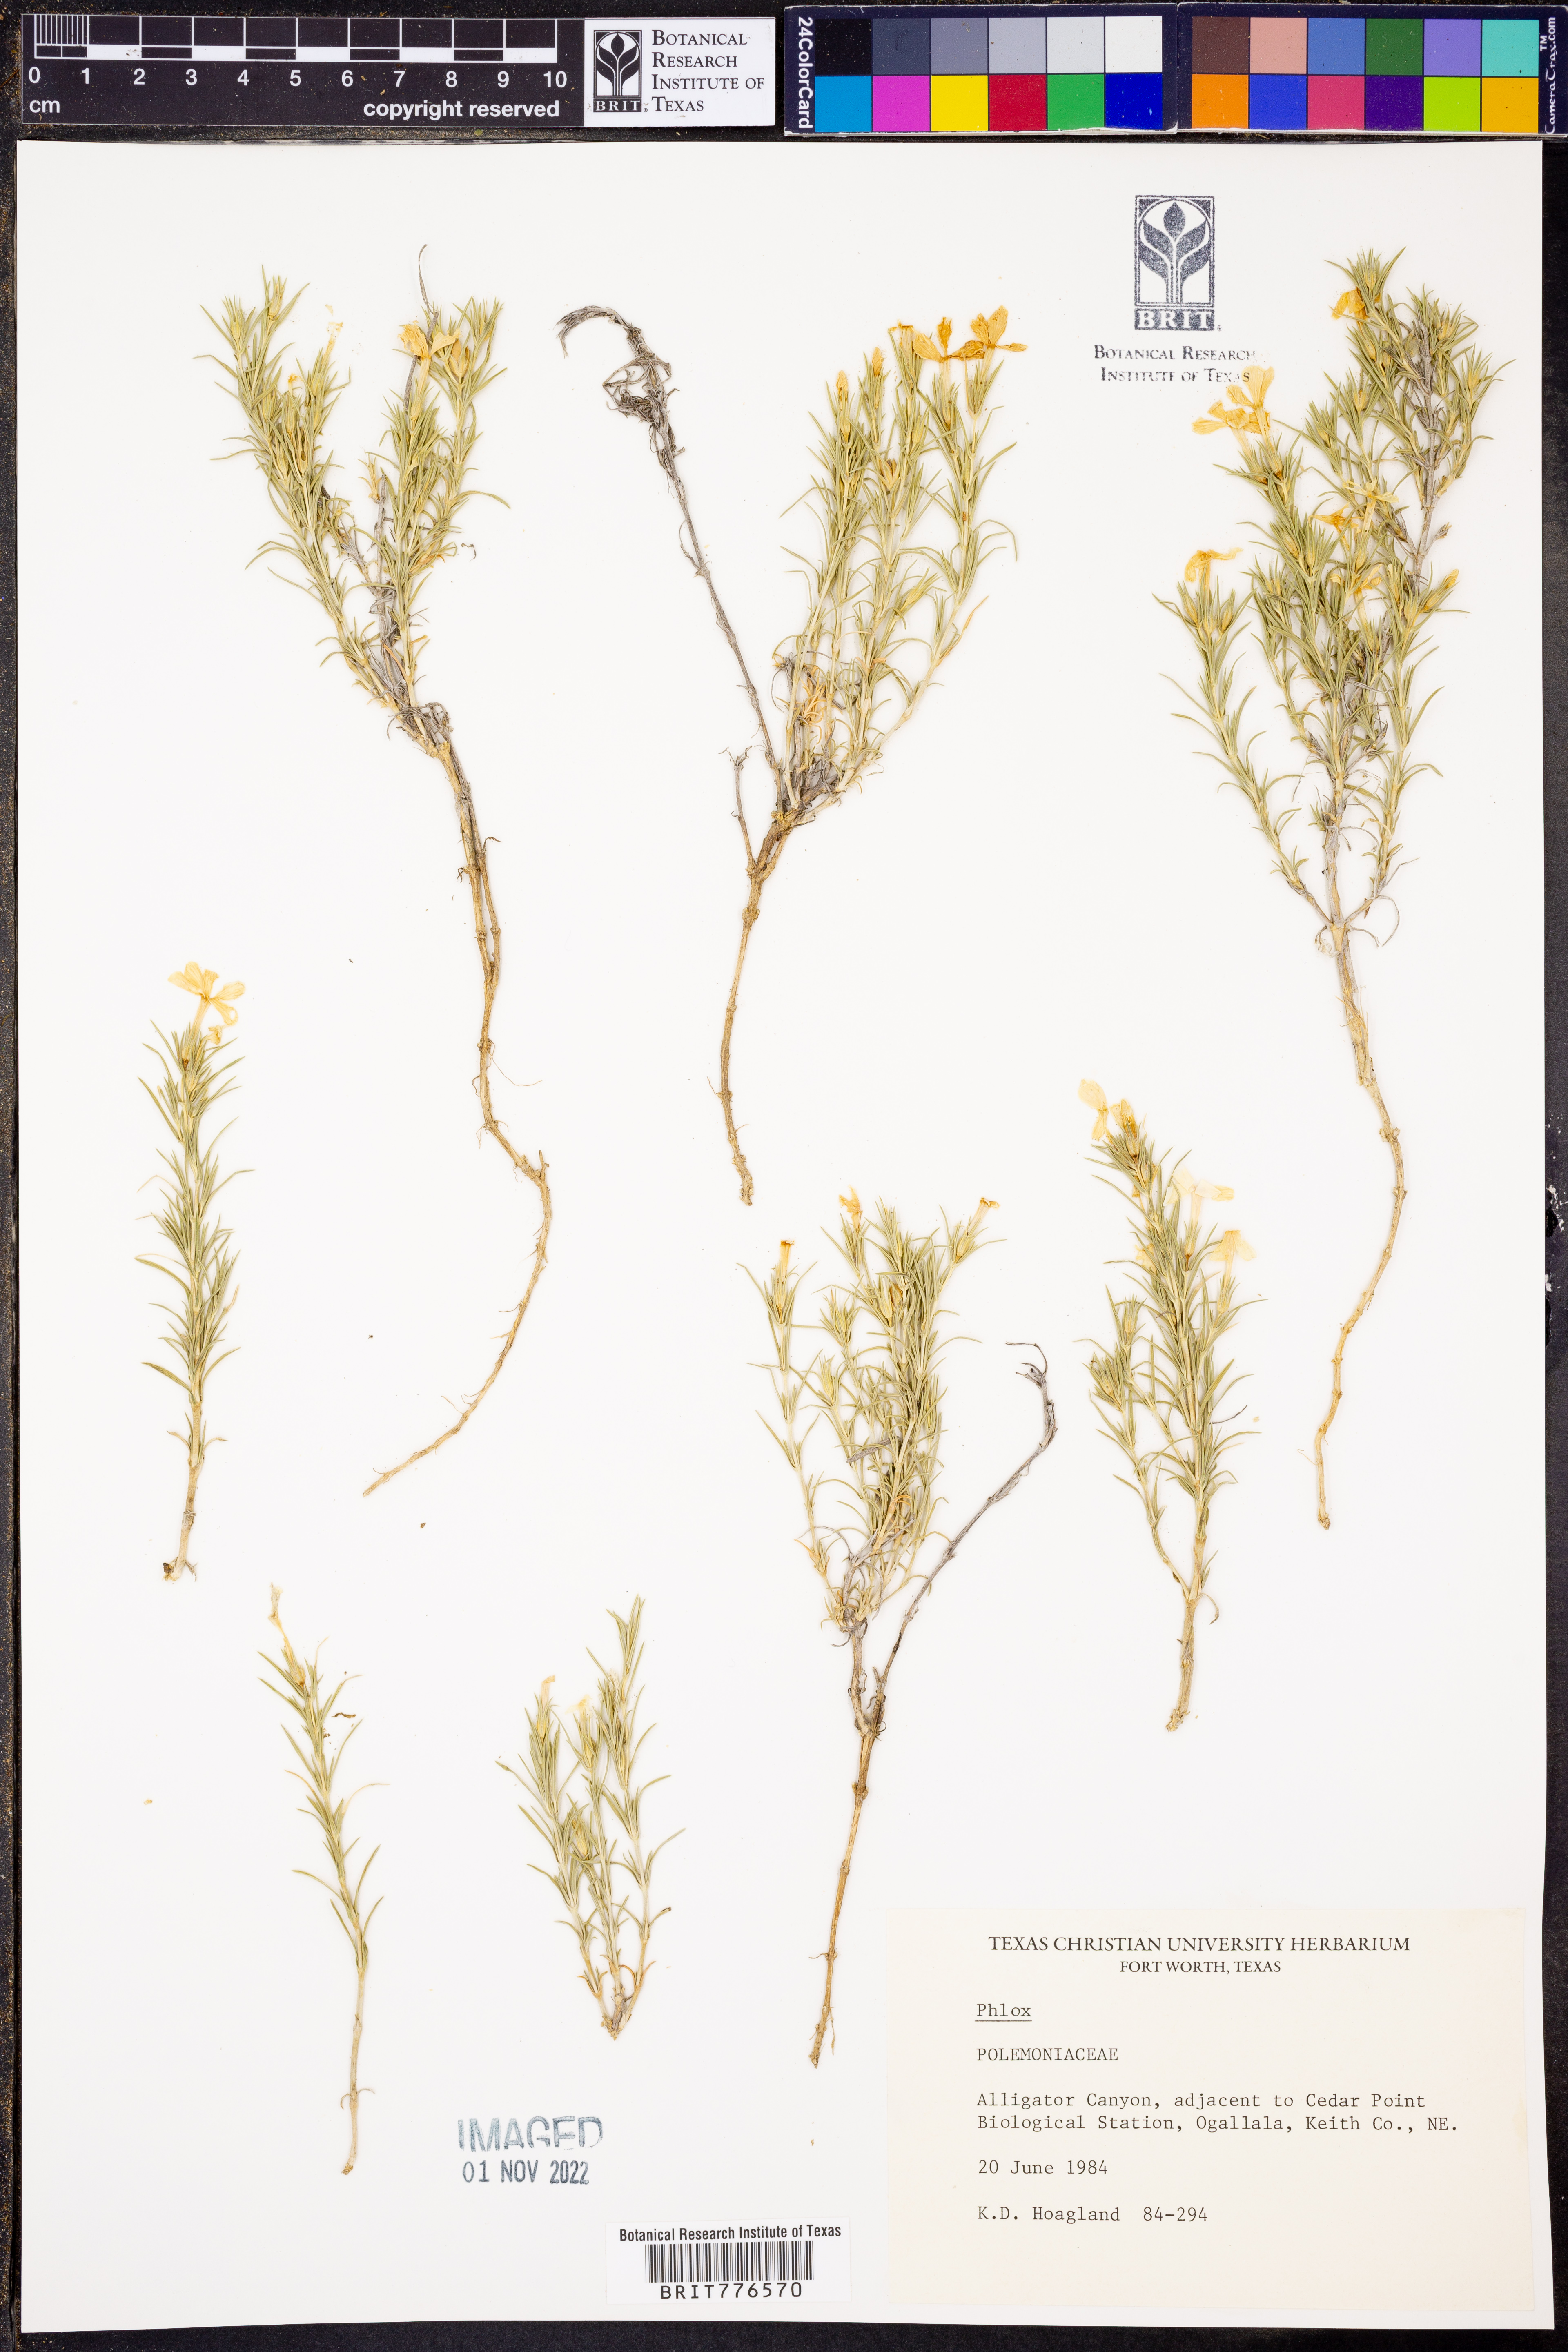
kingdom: Plantae
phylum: Tracheophyta
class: Magnoliopsida
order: Ericales
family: Polemoniaceae
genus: Phlox
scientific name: Phlox
